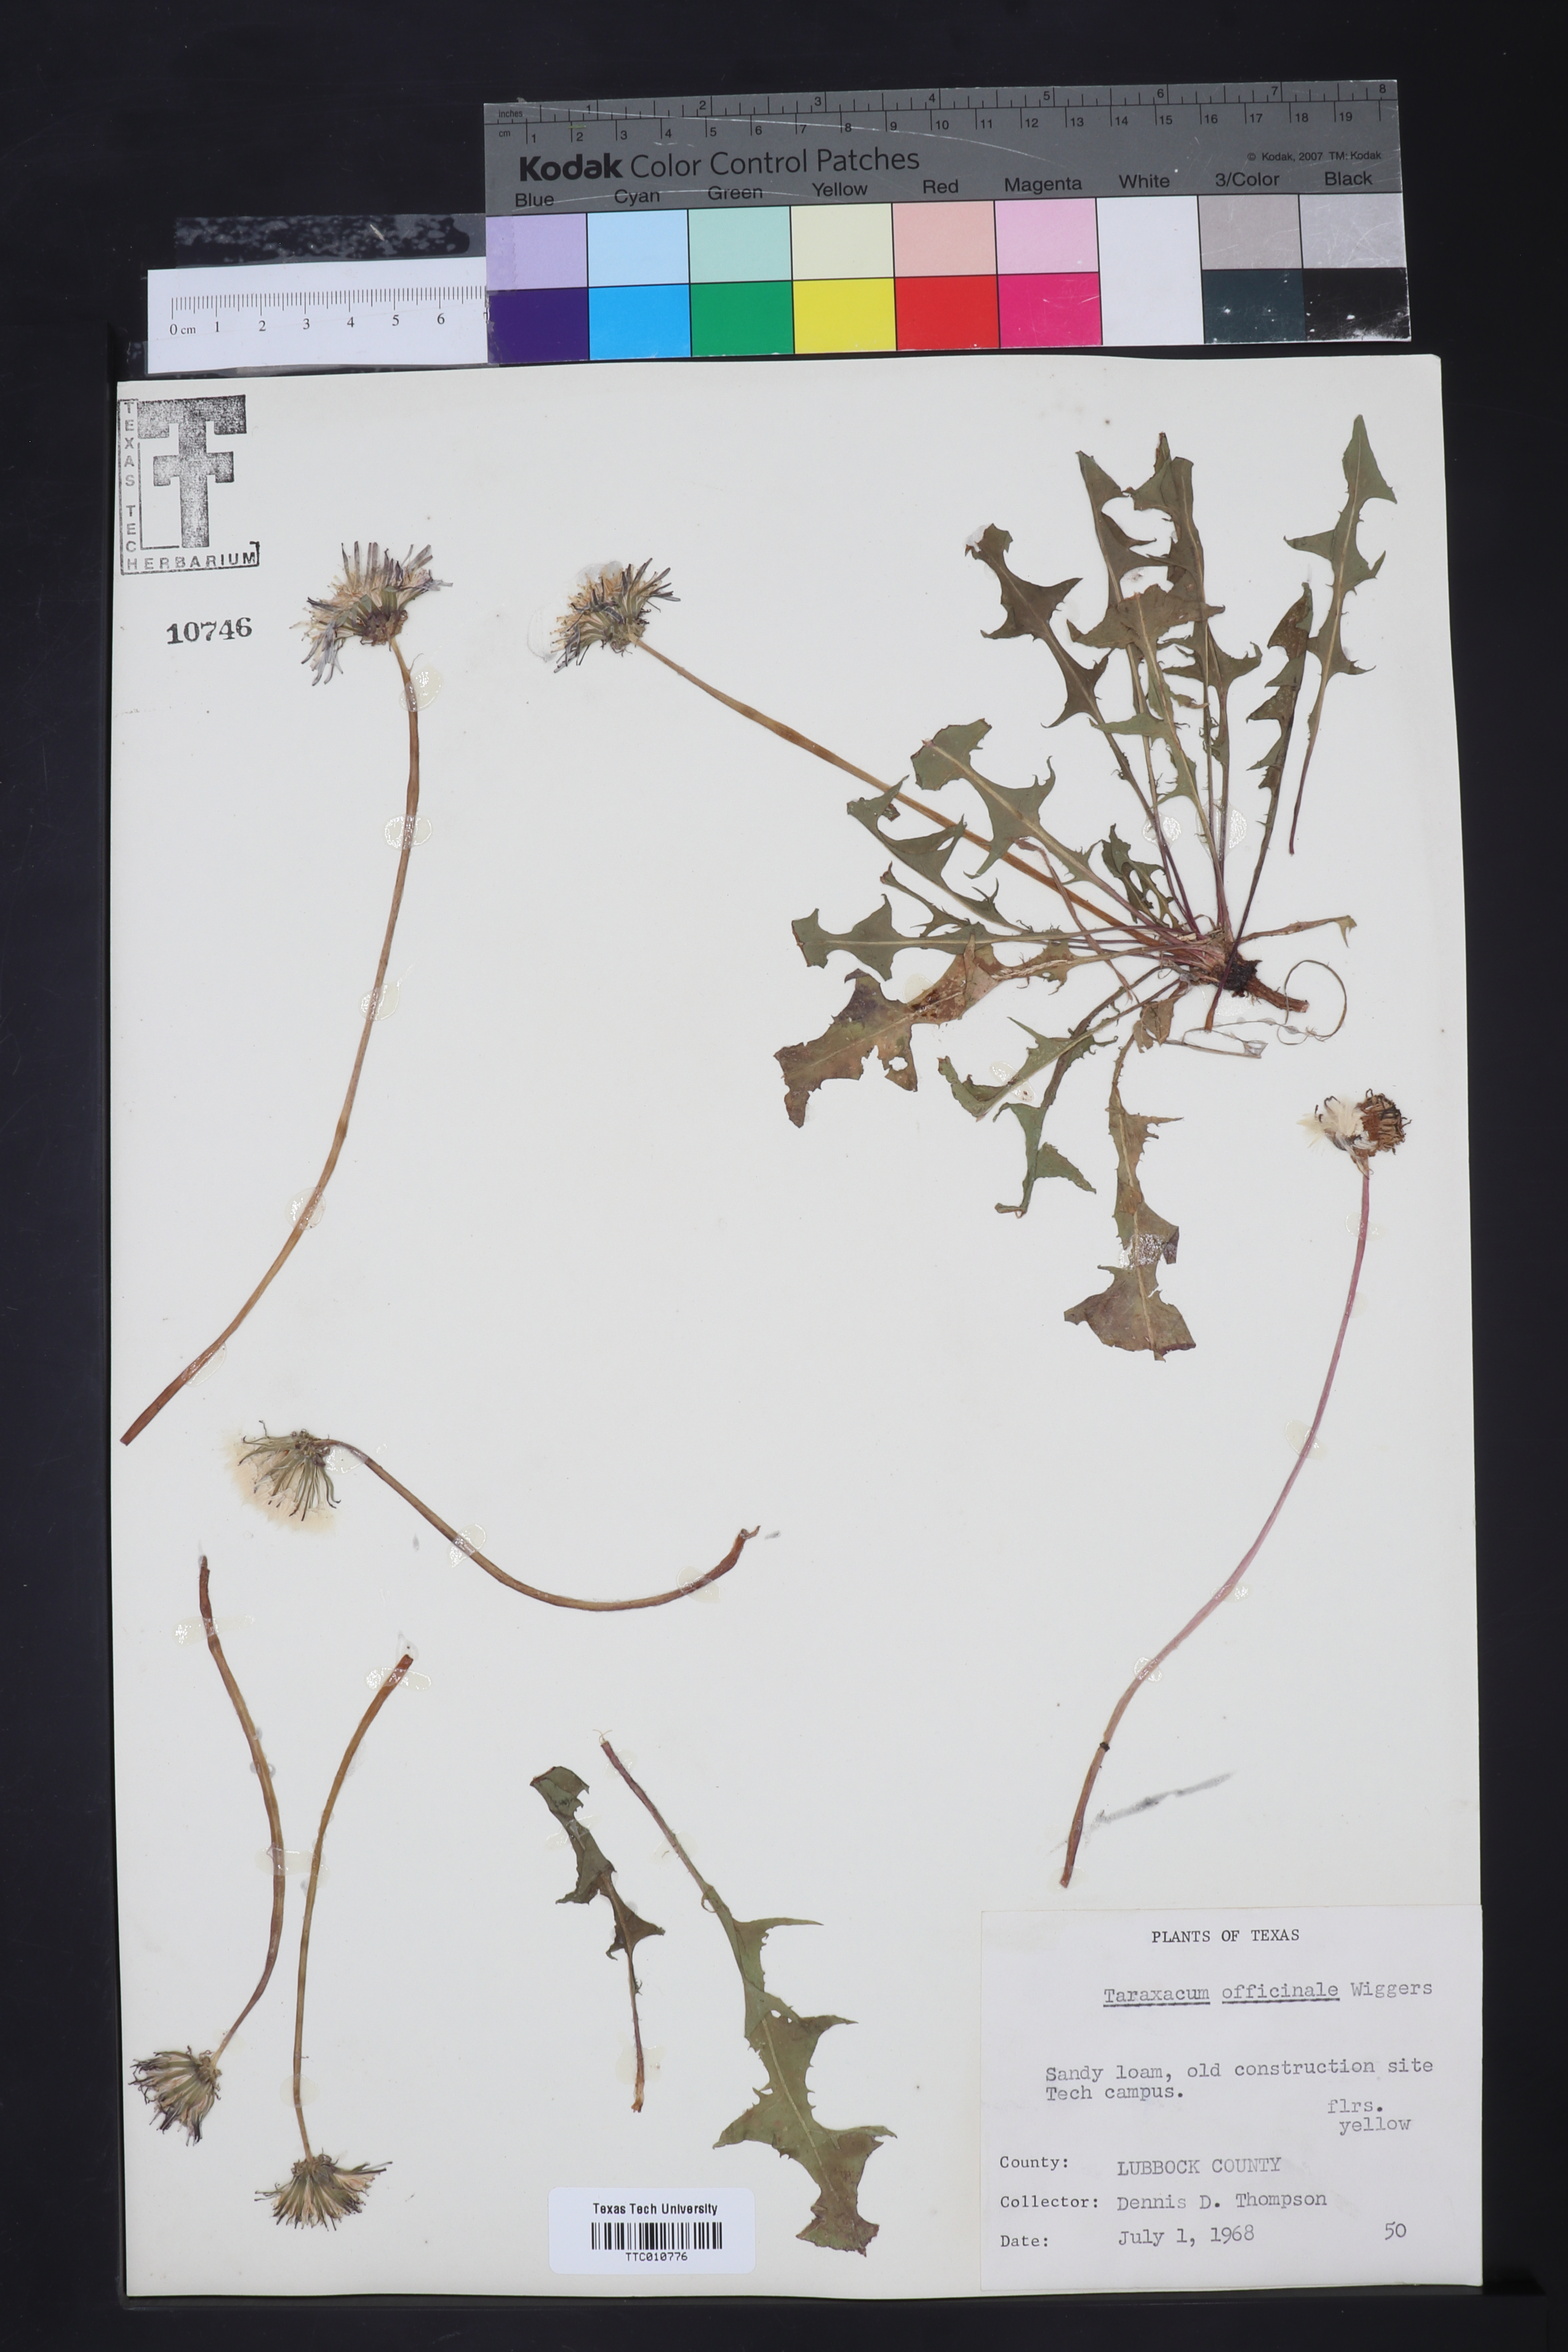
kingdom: Plantae
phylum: Tracheophyta
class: Magnoliopsida
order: Asterales
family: Asteraceae
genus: Taraxacum
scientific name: Taraxacum officinale
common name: Common dandelion
